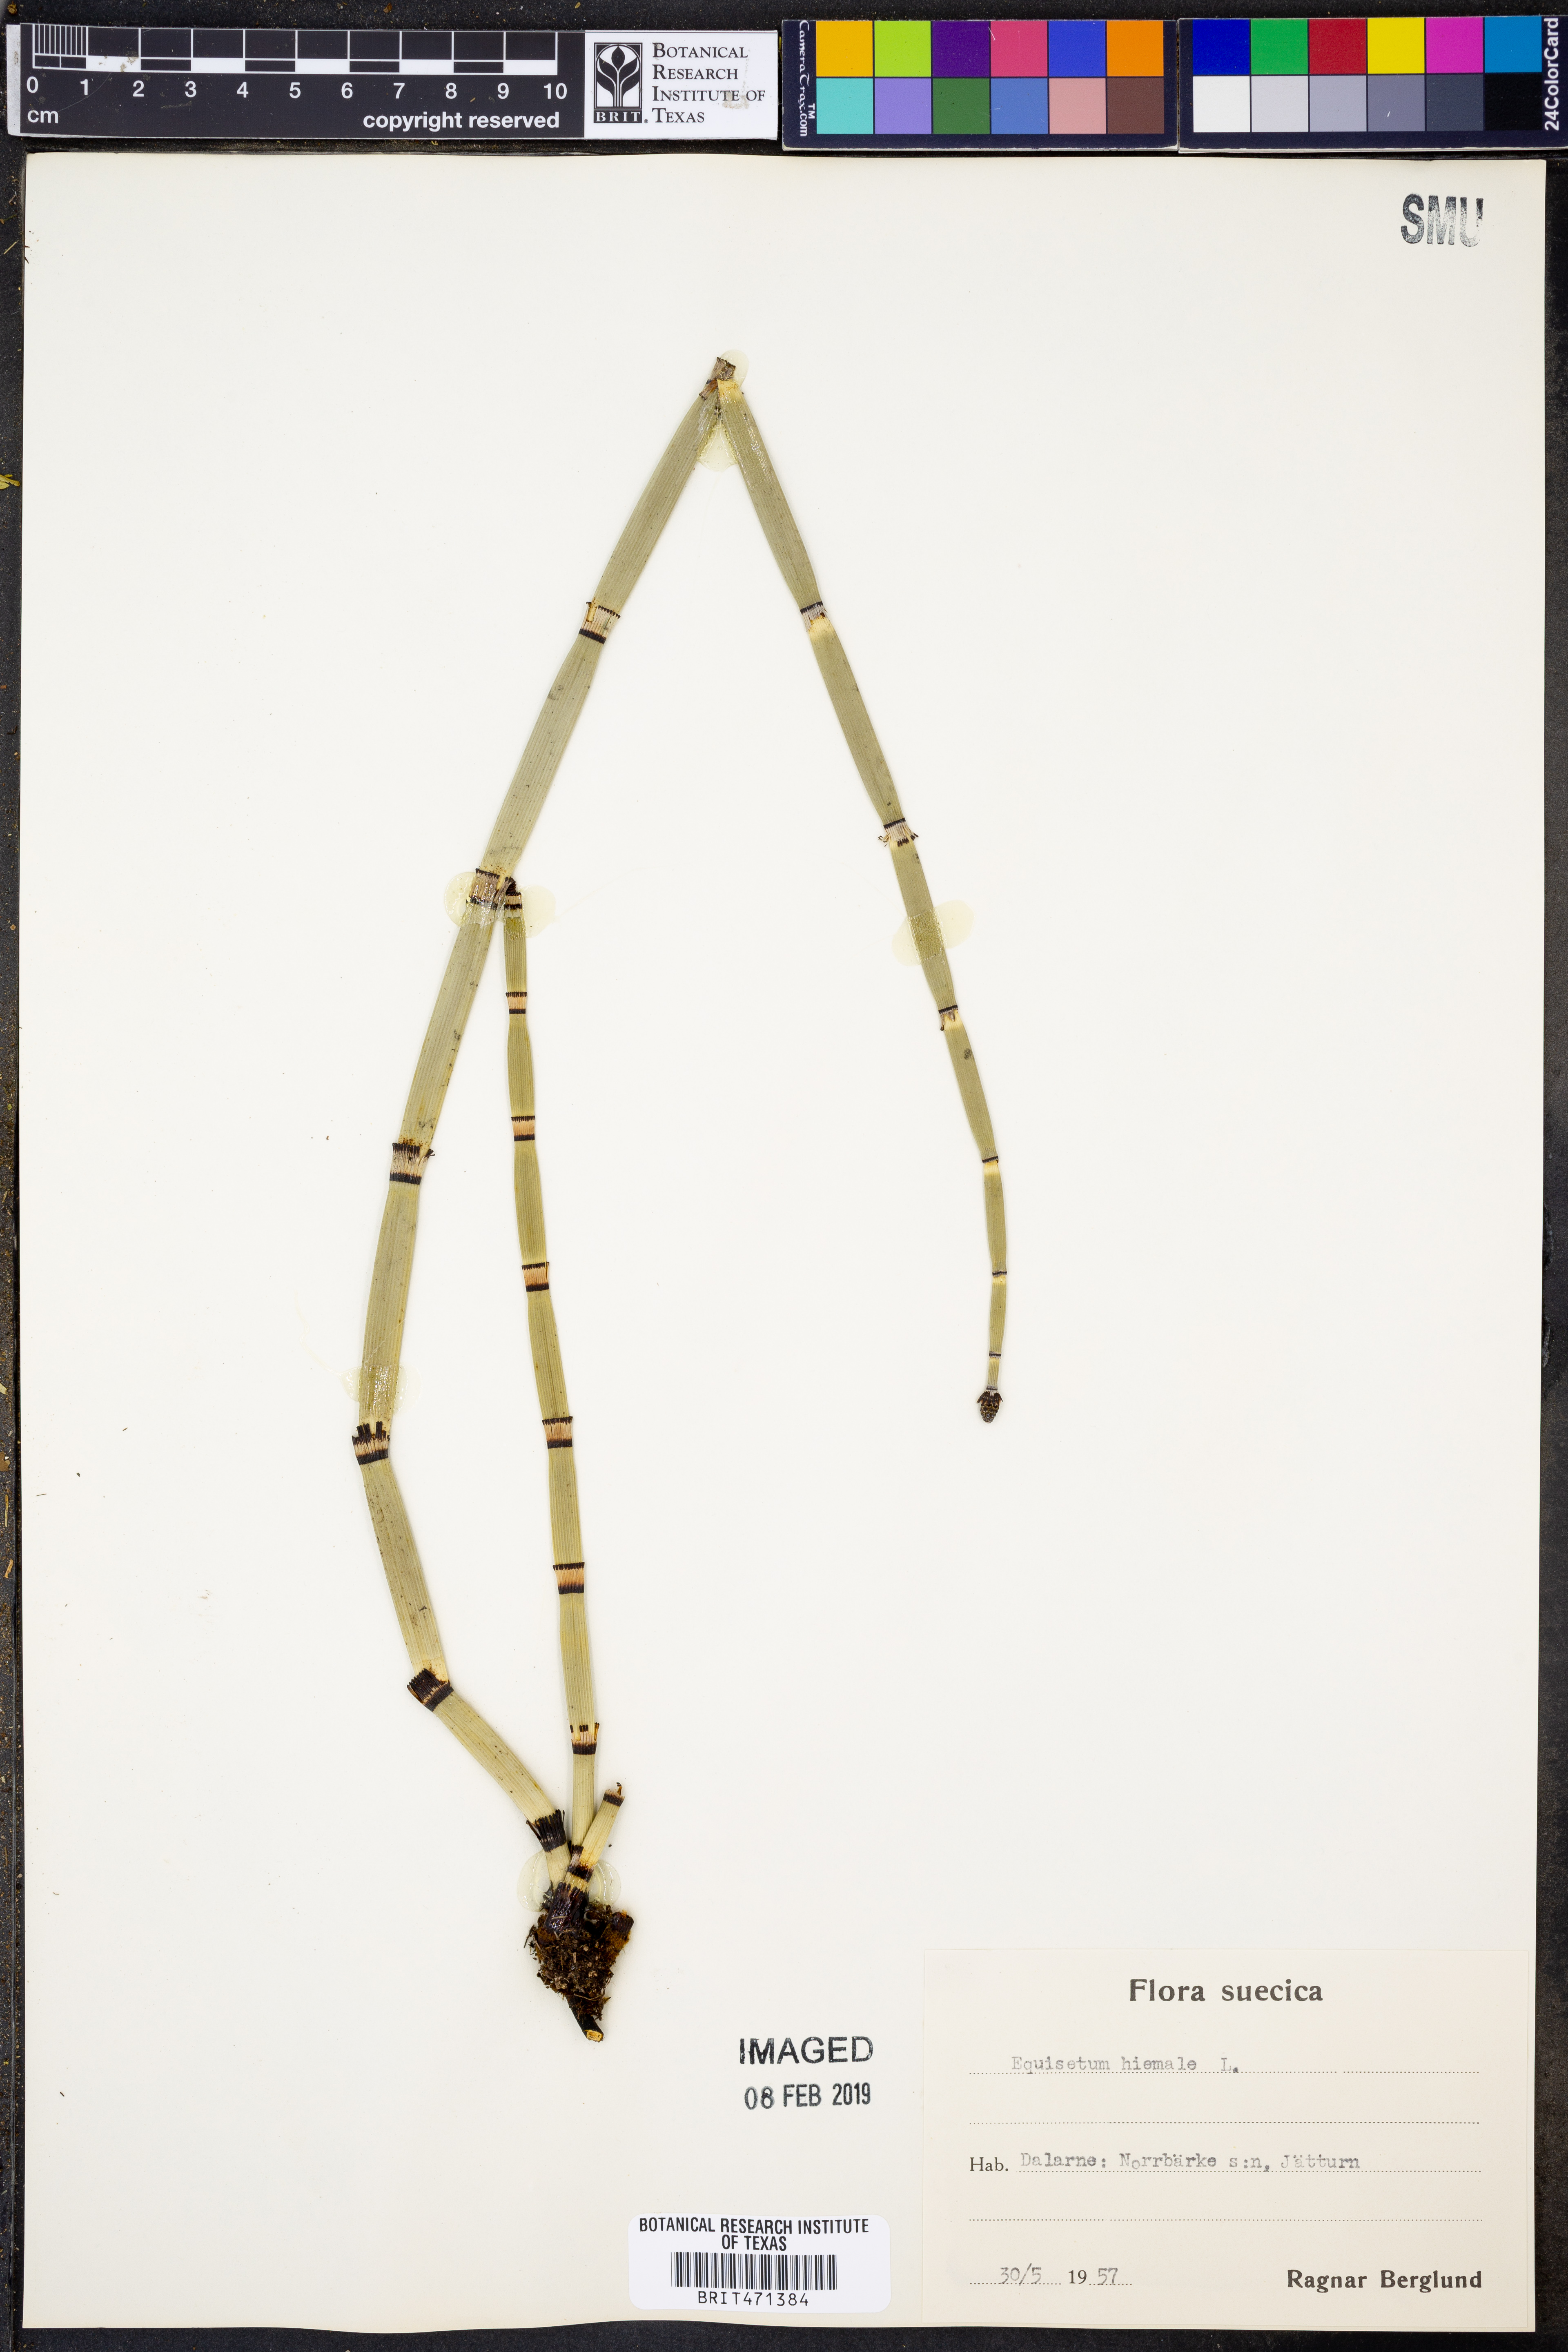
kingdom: Plantae
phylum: Tracheophyta
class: Polypodiopsida
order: Equisetales
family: Equisetaceae
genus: Equisetum
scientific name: Equisetum hyemale
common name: Rough horsetail
